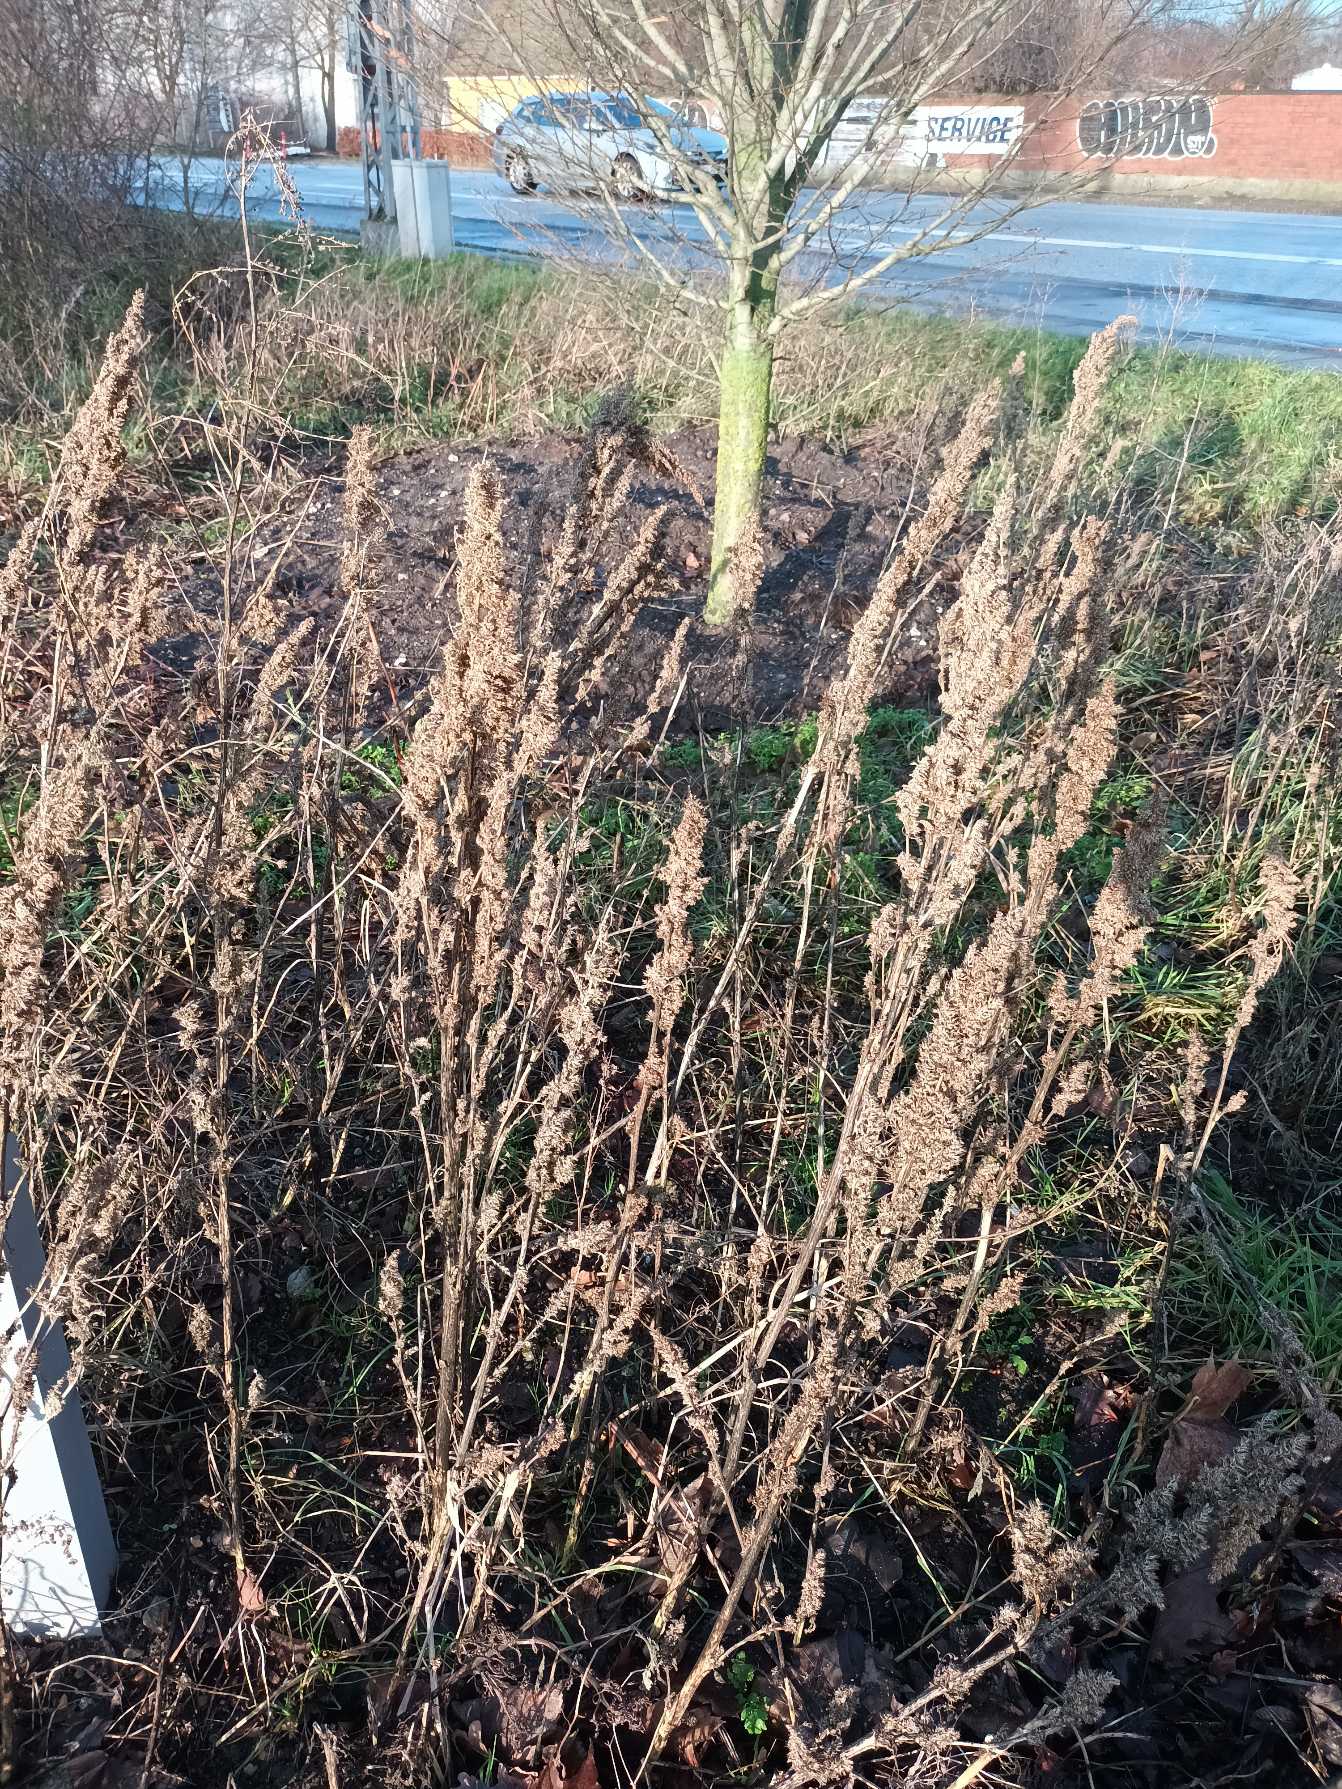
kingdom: Plantae
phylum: Tracheophyta
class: Magnoliopsida
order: Caryophyllales
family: Amaranthaceae
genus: Amaranthus
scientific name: Amaranthus retroflexus
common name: Opret amarant
